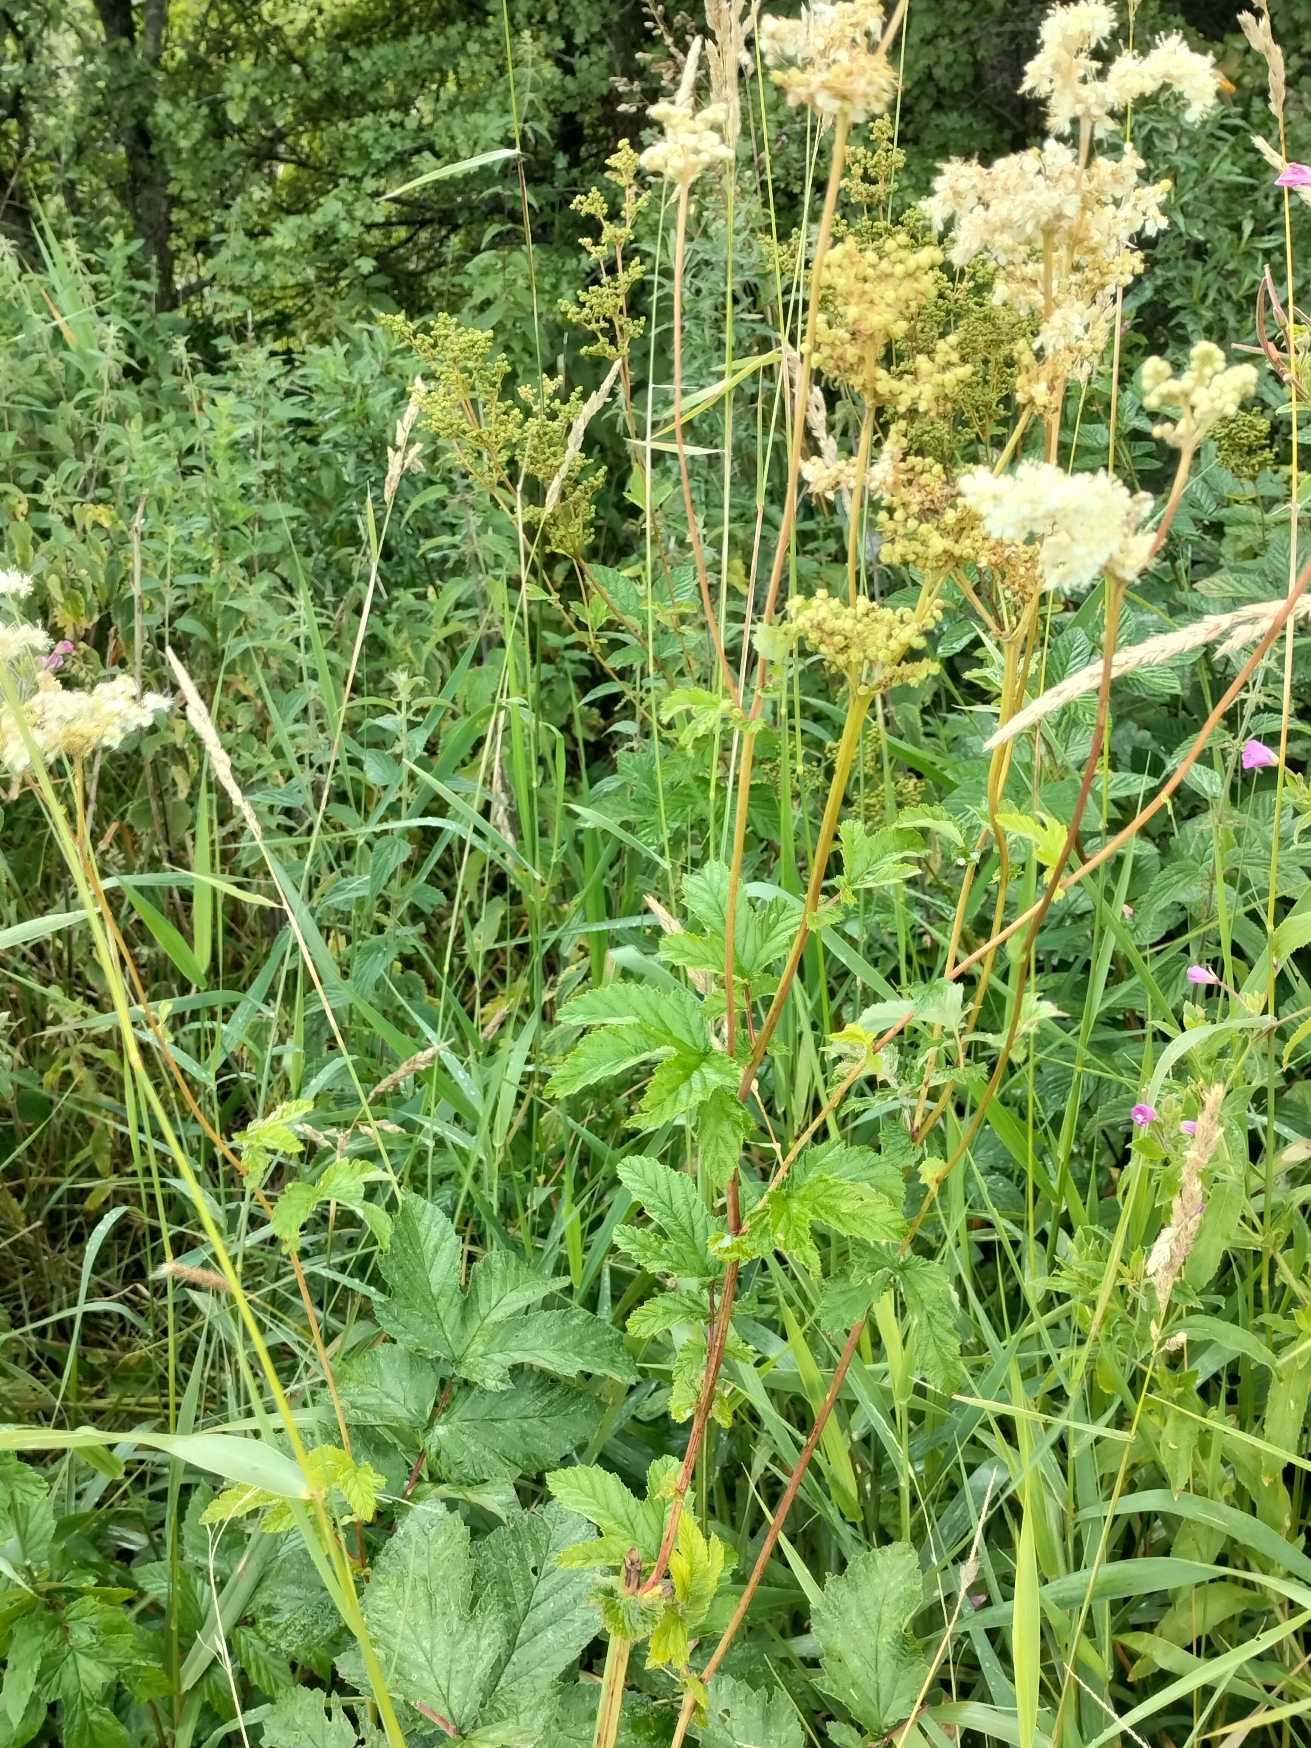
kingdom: Plantae
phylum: Tracheophyta
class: Magnoliopsida
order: Rosales
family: Rosaceae
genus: Filipendula
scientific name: Filipendula ulmaria
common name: Almindelig mjødurt
